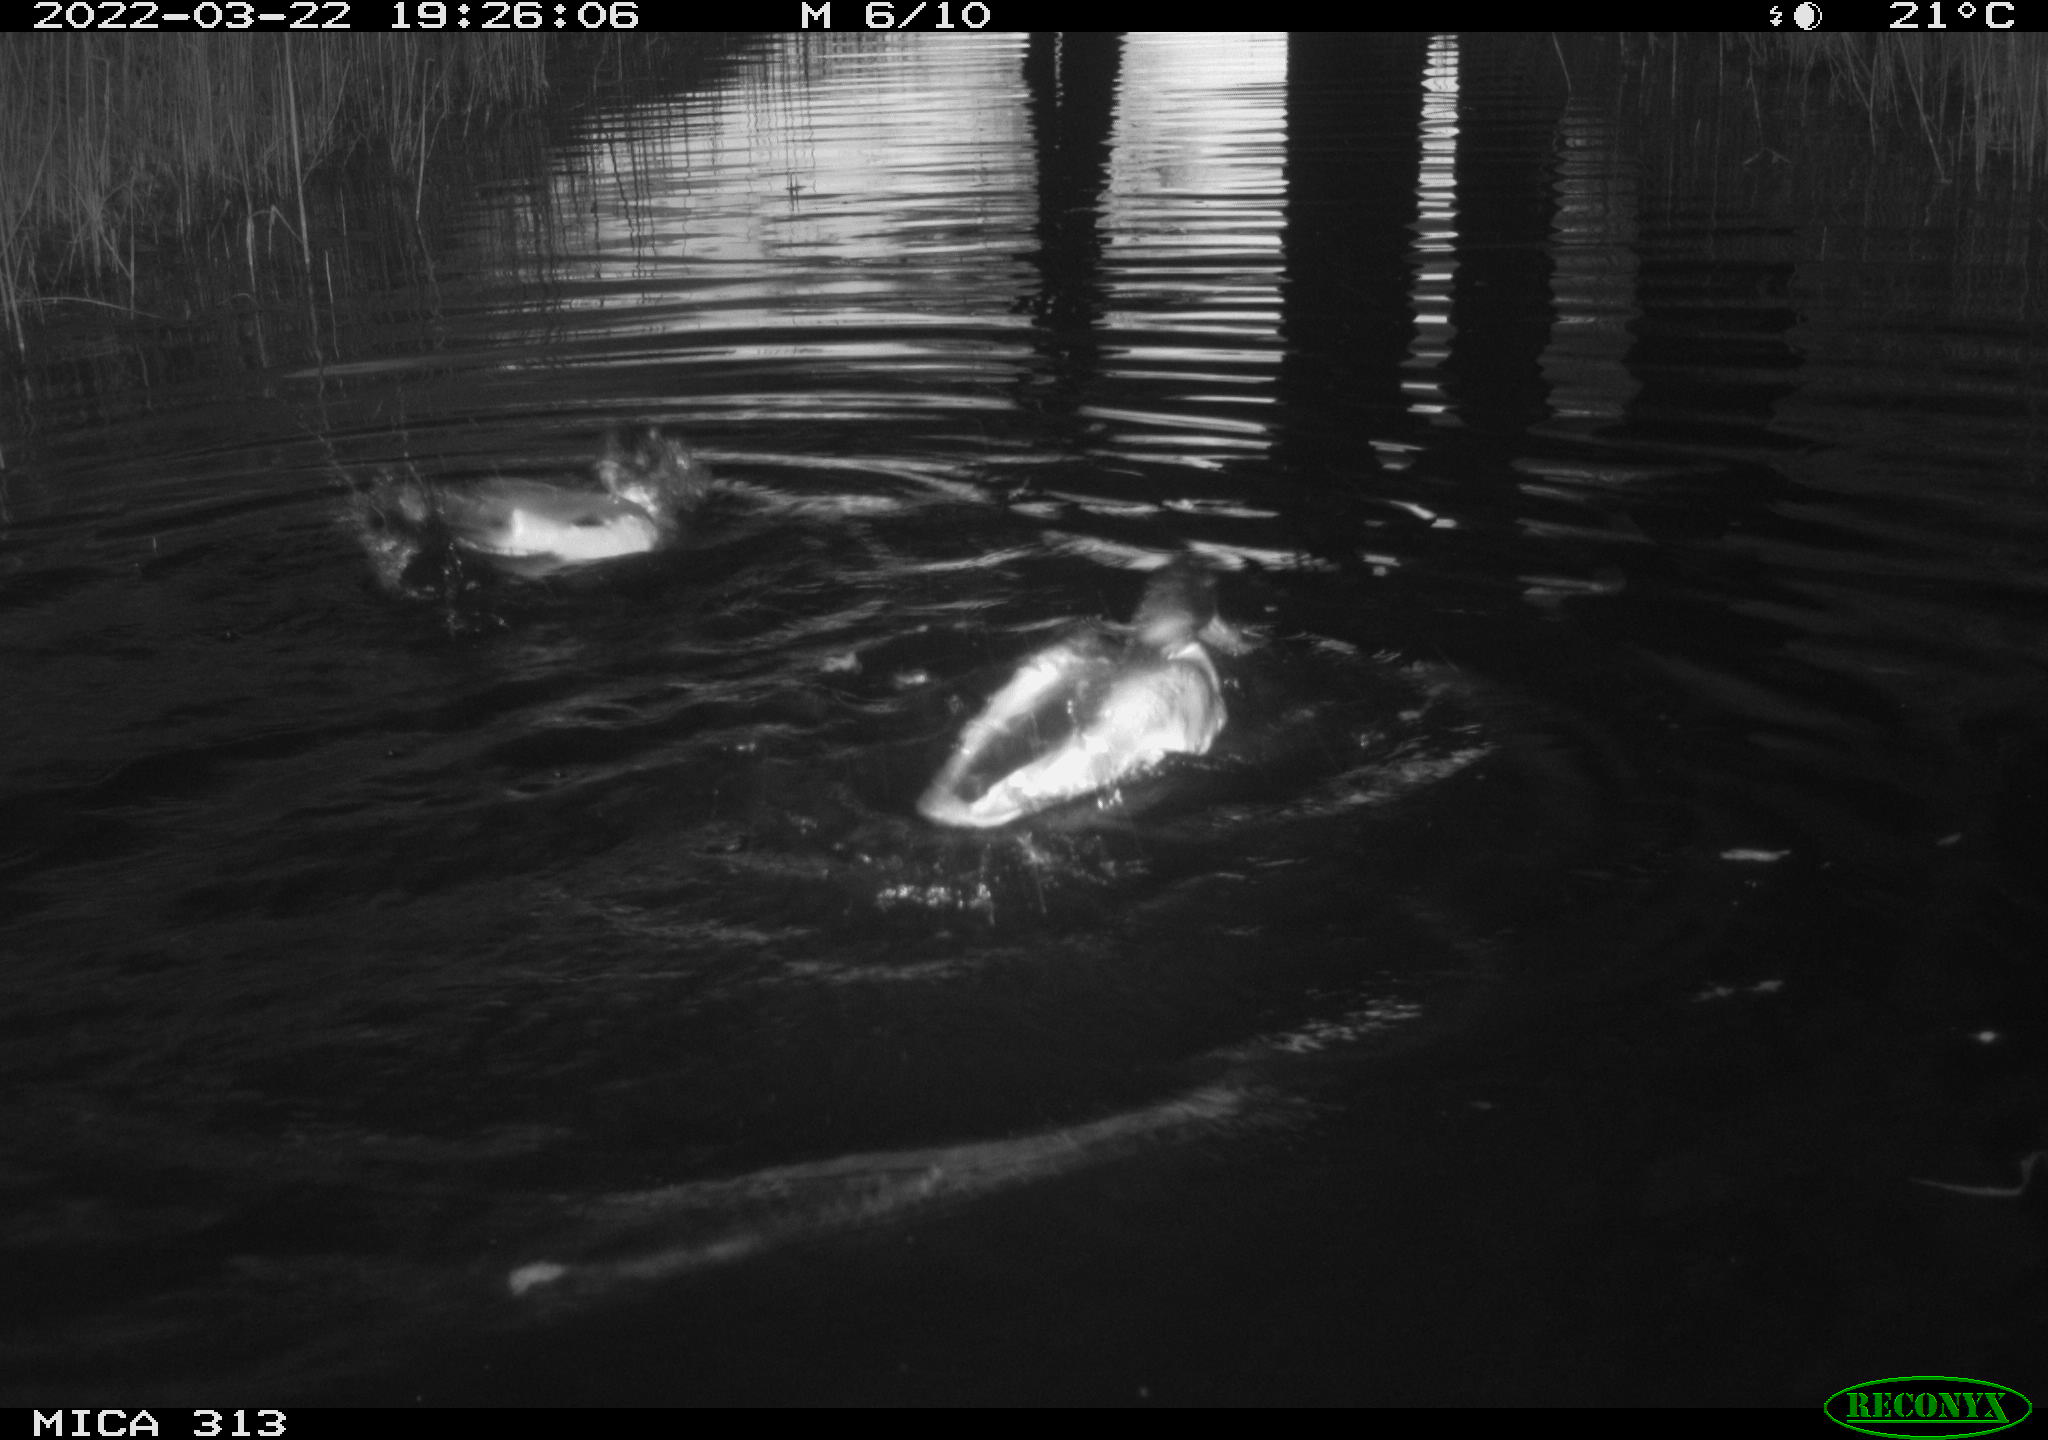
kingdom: Animalia
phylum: Chordata
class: Aves
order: Anseriformes
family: Anatidae
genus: Anas
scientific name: Anas platyrhynchos
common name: Mallard
